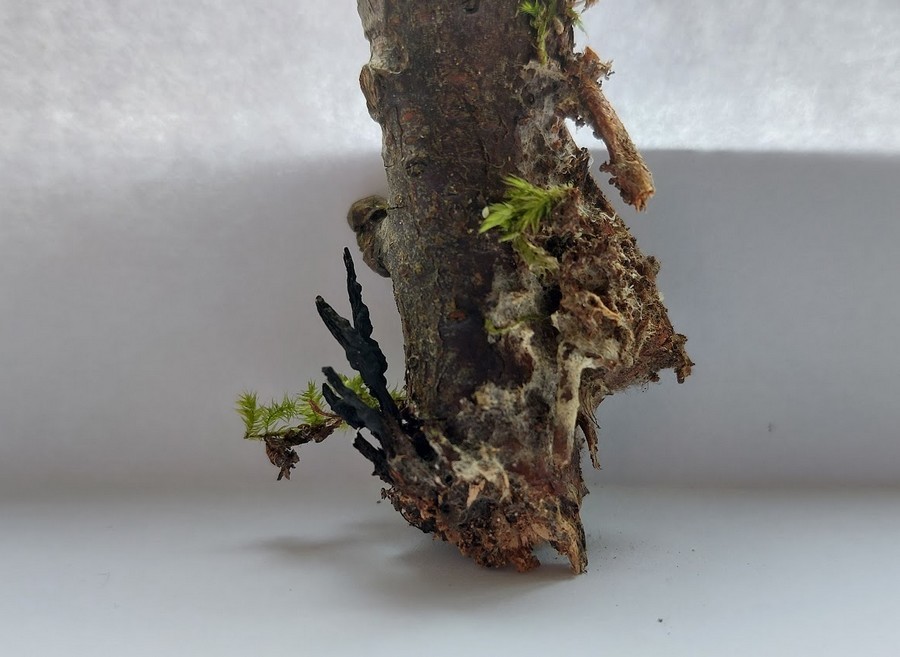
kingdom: Fungi
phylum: Ascomycota
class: Sordariomycetes
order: Xylariales
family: Xylariaceae
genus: Xylaria
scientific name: Xylaria hypoxylon
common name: grenet stødsvamp
